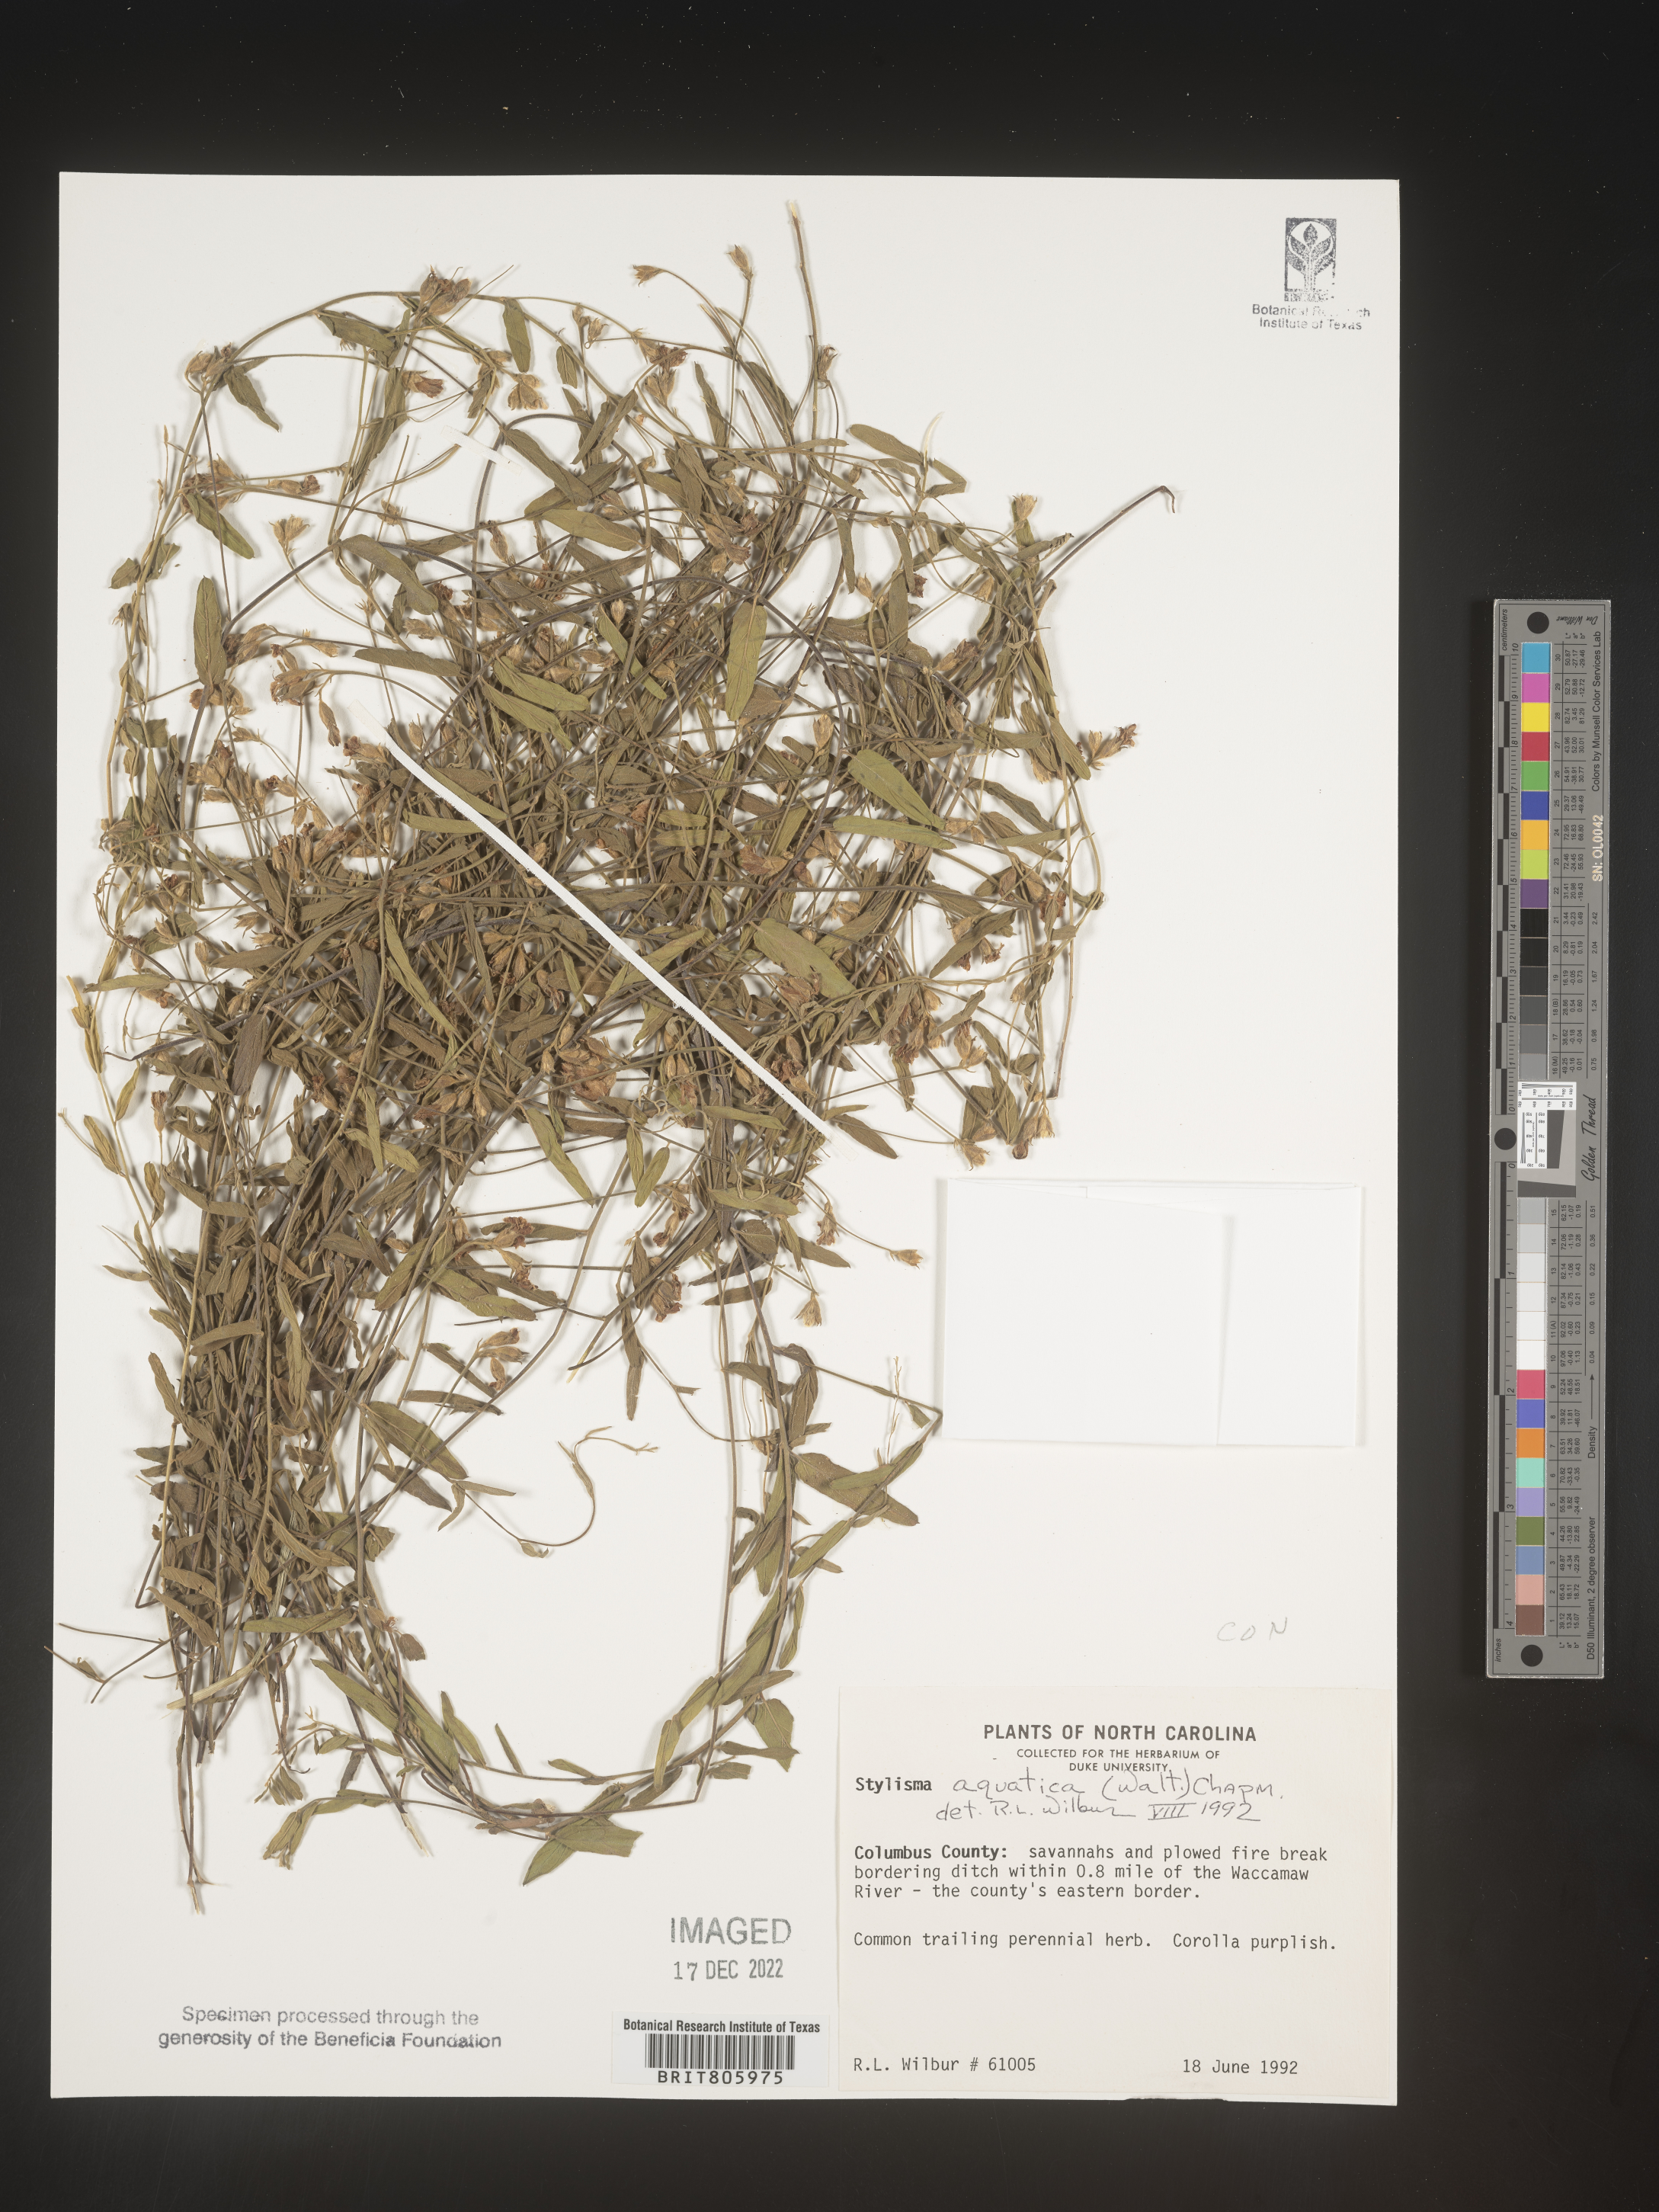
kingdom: Plantae
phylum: Tracheophyta
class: Magnoliopsida
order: Solanales
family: Convolvulaceae
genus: Stylisma
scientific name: Stylisma
